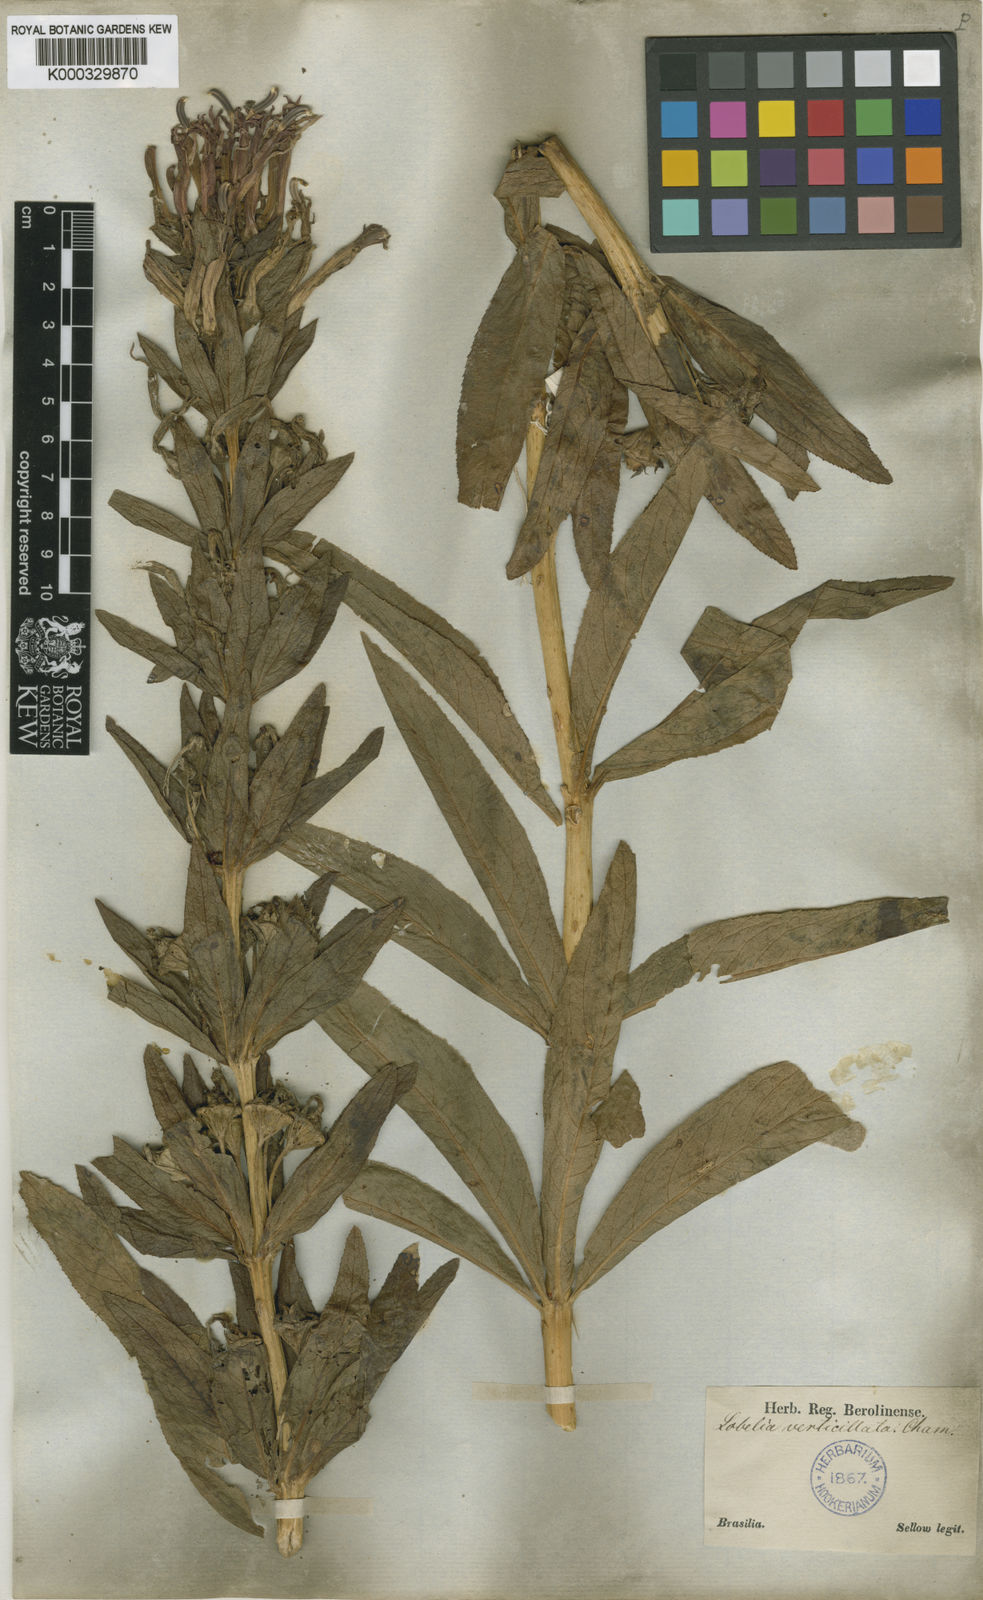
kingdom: Plantae
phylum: Tracheophyta
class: Magnoliopsida
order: Asterales
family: Campanulaceae
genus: Siphocampylus
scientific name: Siphocampylus verticillatus
